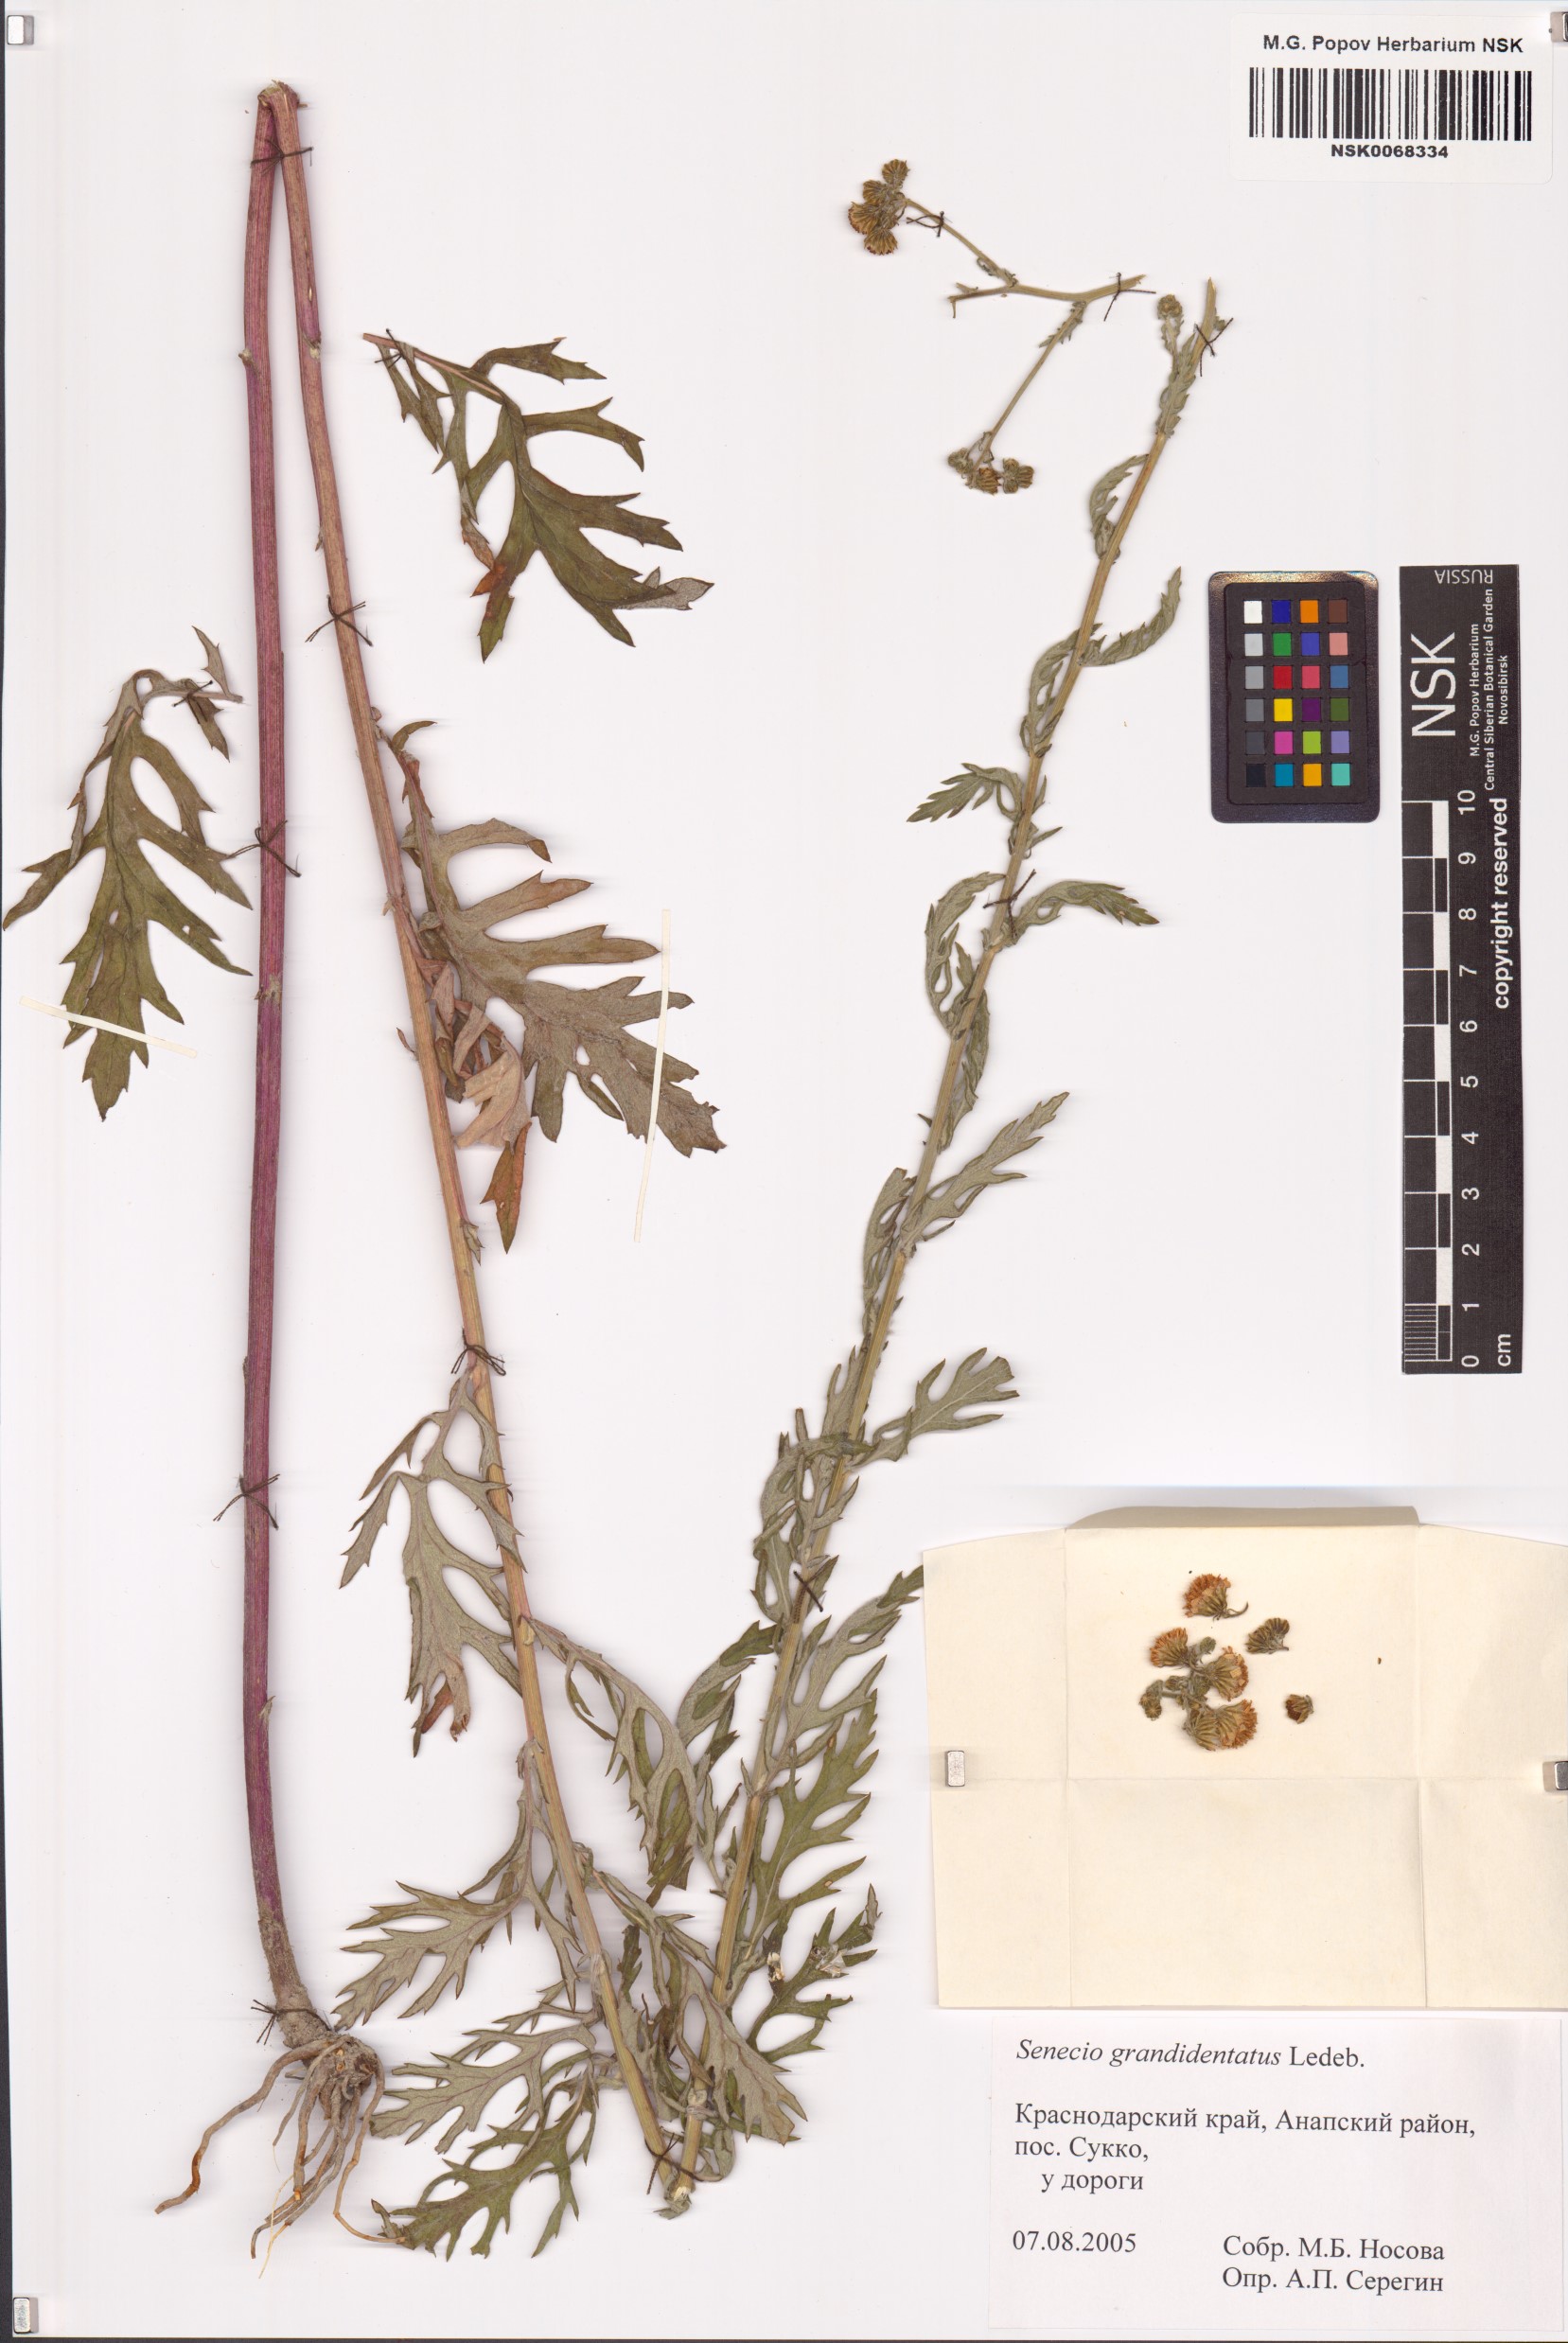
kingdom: Plantae
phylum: Tracheophyta
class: Magnoliopsida
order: Asterales
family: Asteraceae
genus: Jacobaea
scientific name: Jacobaea erucifolia
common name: Hoary ragwort
